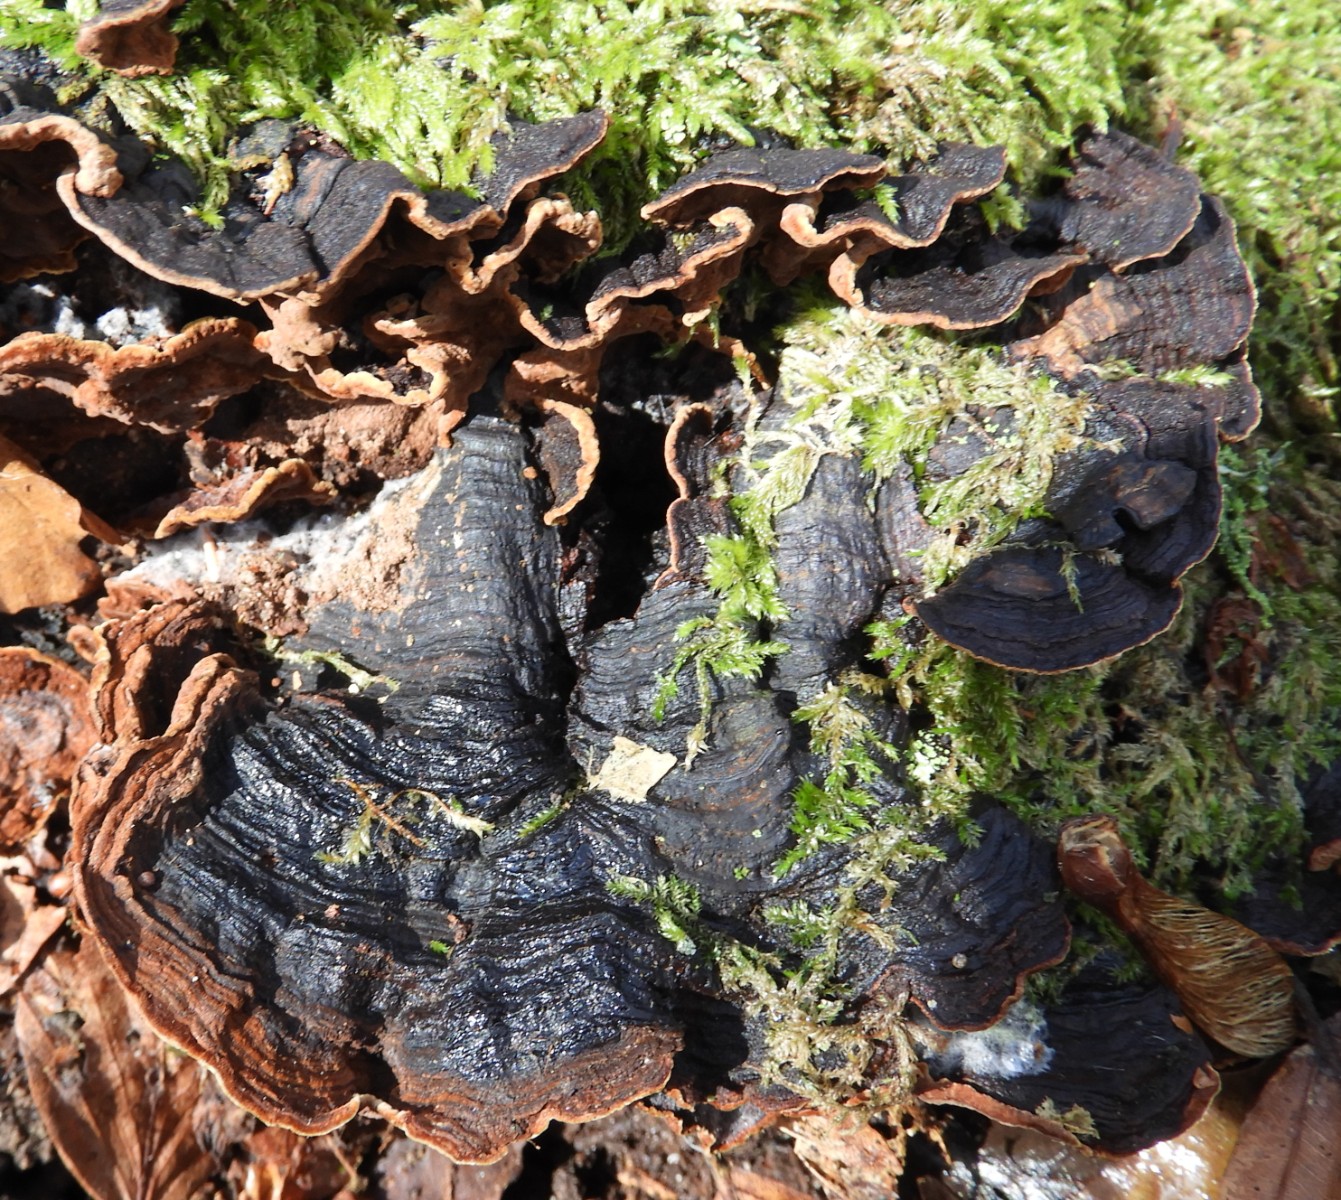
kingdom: Fungi
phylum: Basidiomycota
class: Agaricomycetes
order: Hymenochaetales
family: Hymenochaetaceae
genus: Hymenochaete
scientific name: Hymenochaete rubiginosa
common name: stiv ruslædersvamp
